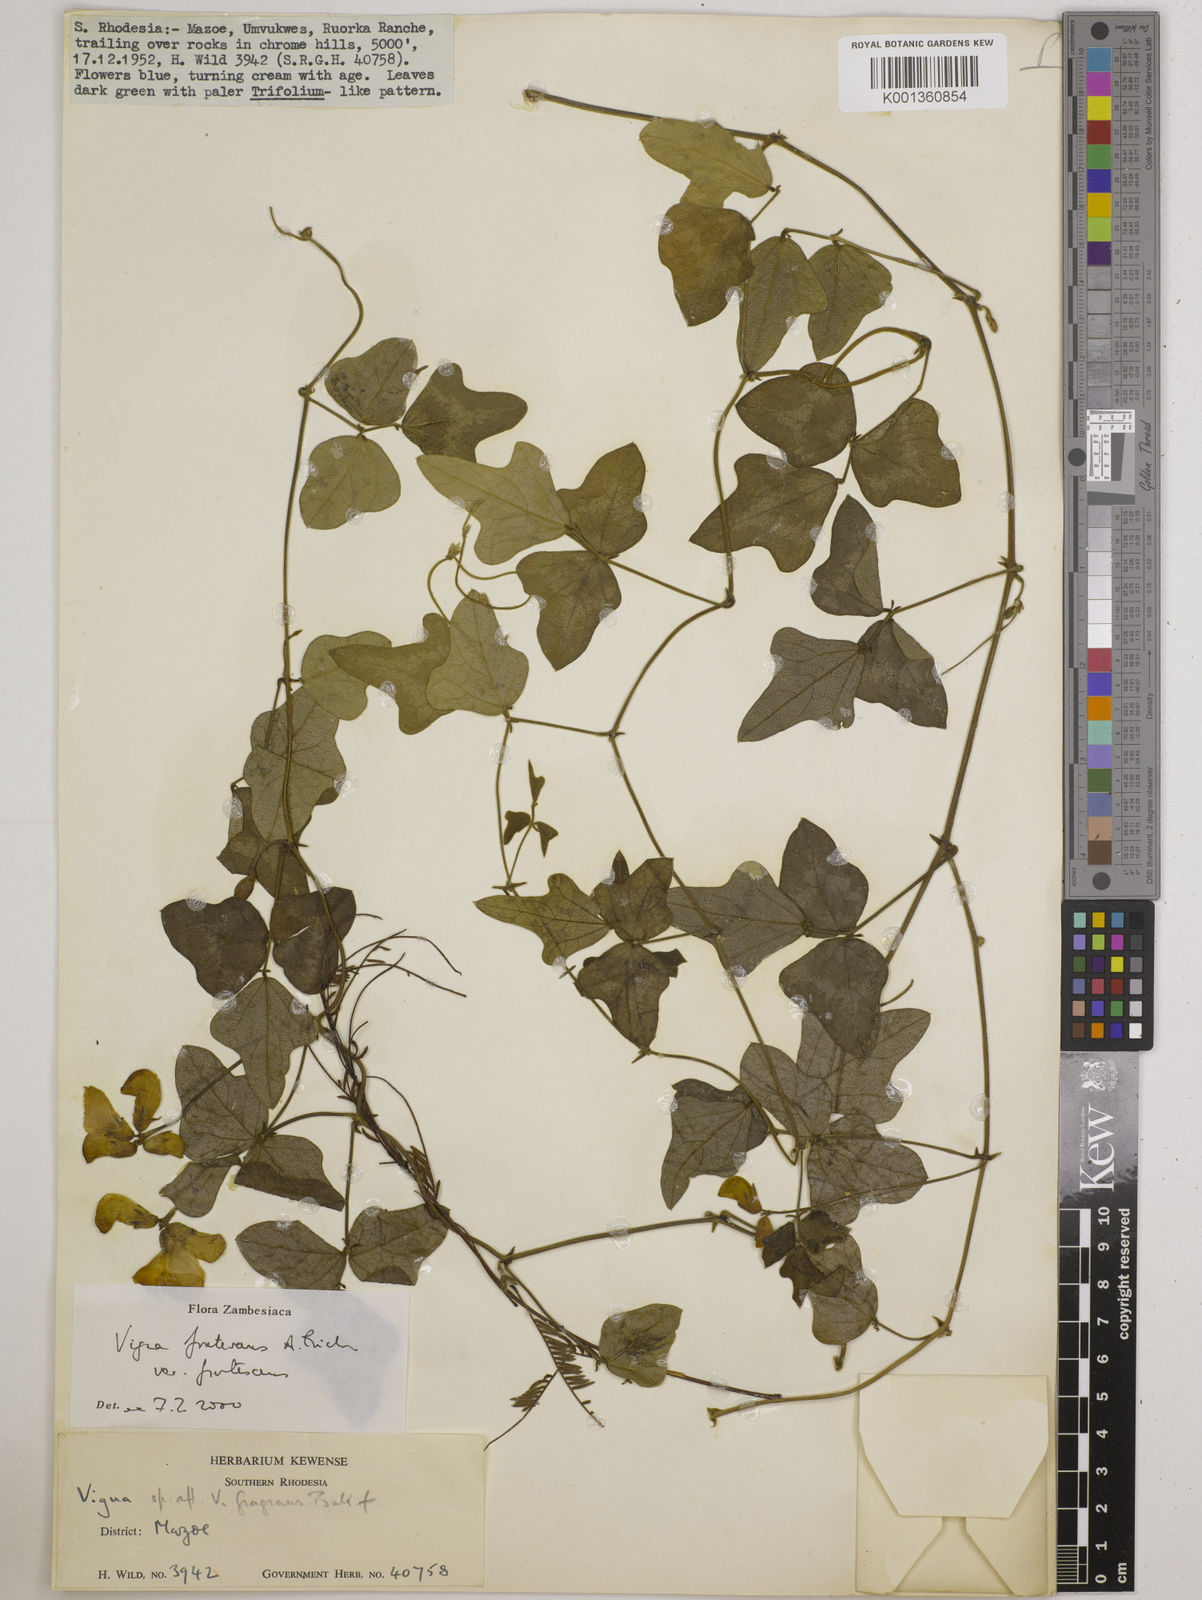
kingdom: Plantae
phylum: Tracheophyta
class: Magnoliopsida
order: Fabales
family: Fabaceae
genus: Vigna
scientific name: Vigna
